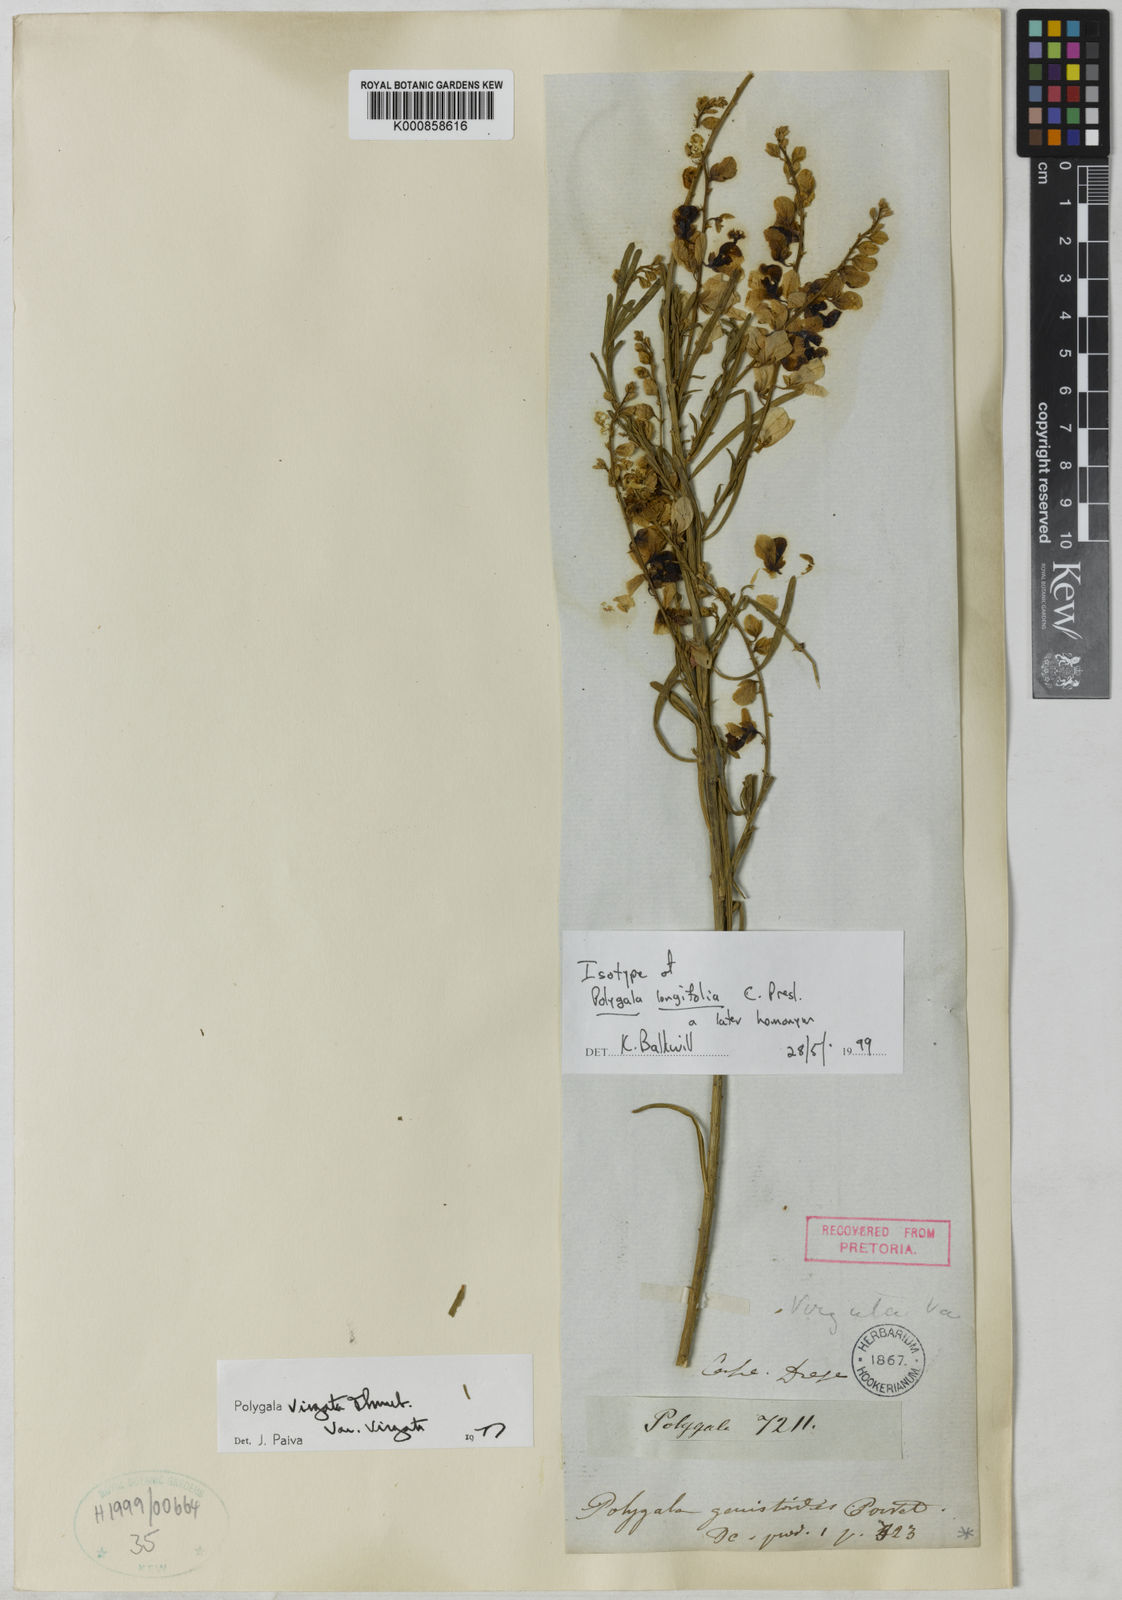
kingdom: Plantae
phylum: Tracheophyta
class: Magnoliopsida
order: Fabales
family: Polygalaceae
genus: Polygala
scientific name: Polygala virgata
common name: Milkwort
